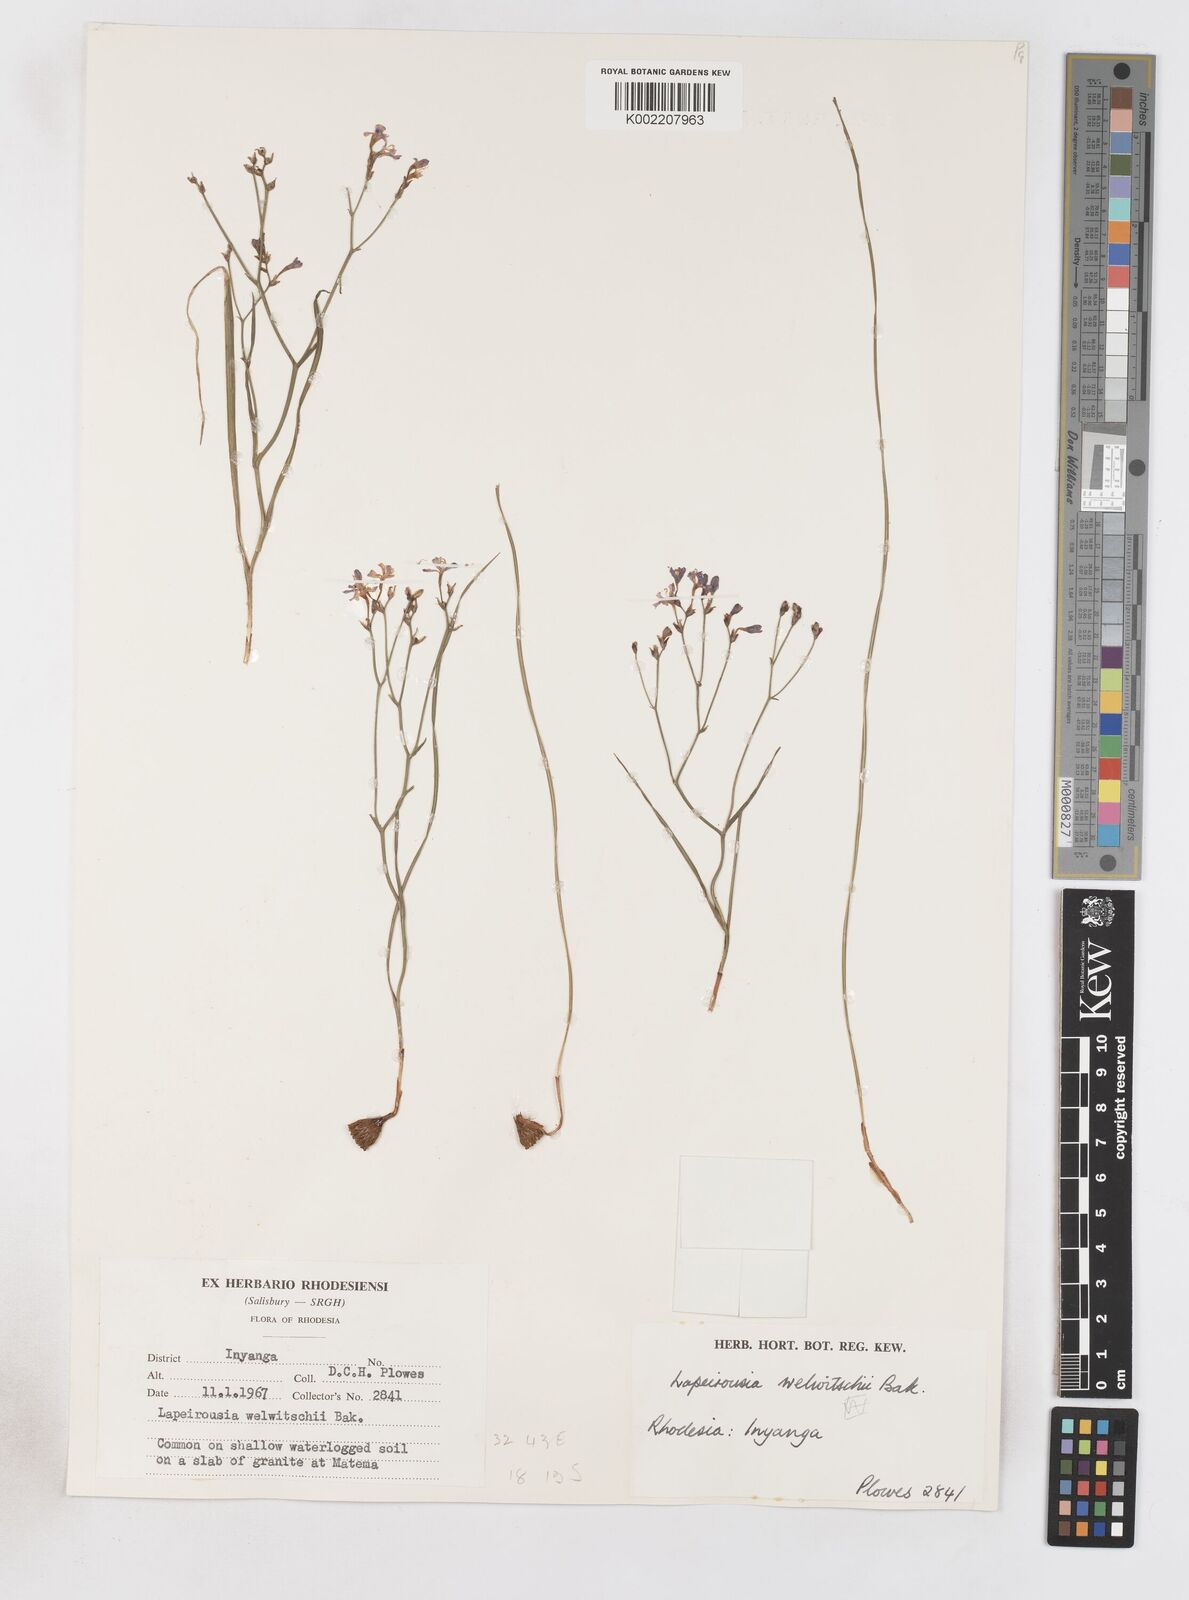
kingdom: Plantae
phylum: Tracheophyta
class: Liliopsida
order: Asparagales
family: Iridaceae
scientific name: Iridaceae
